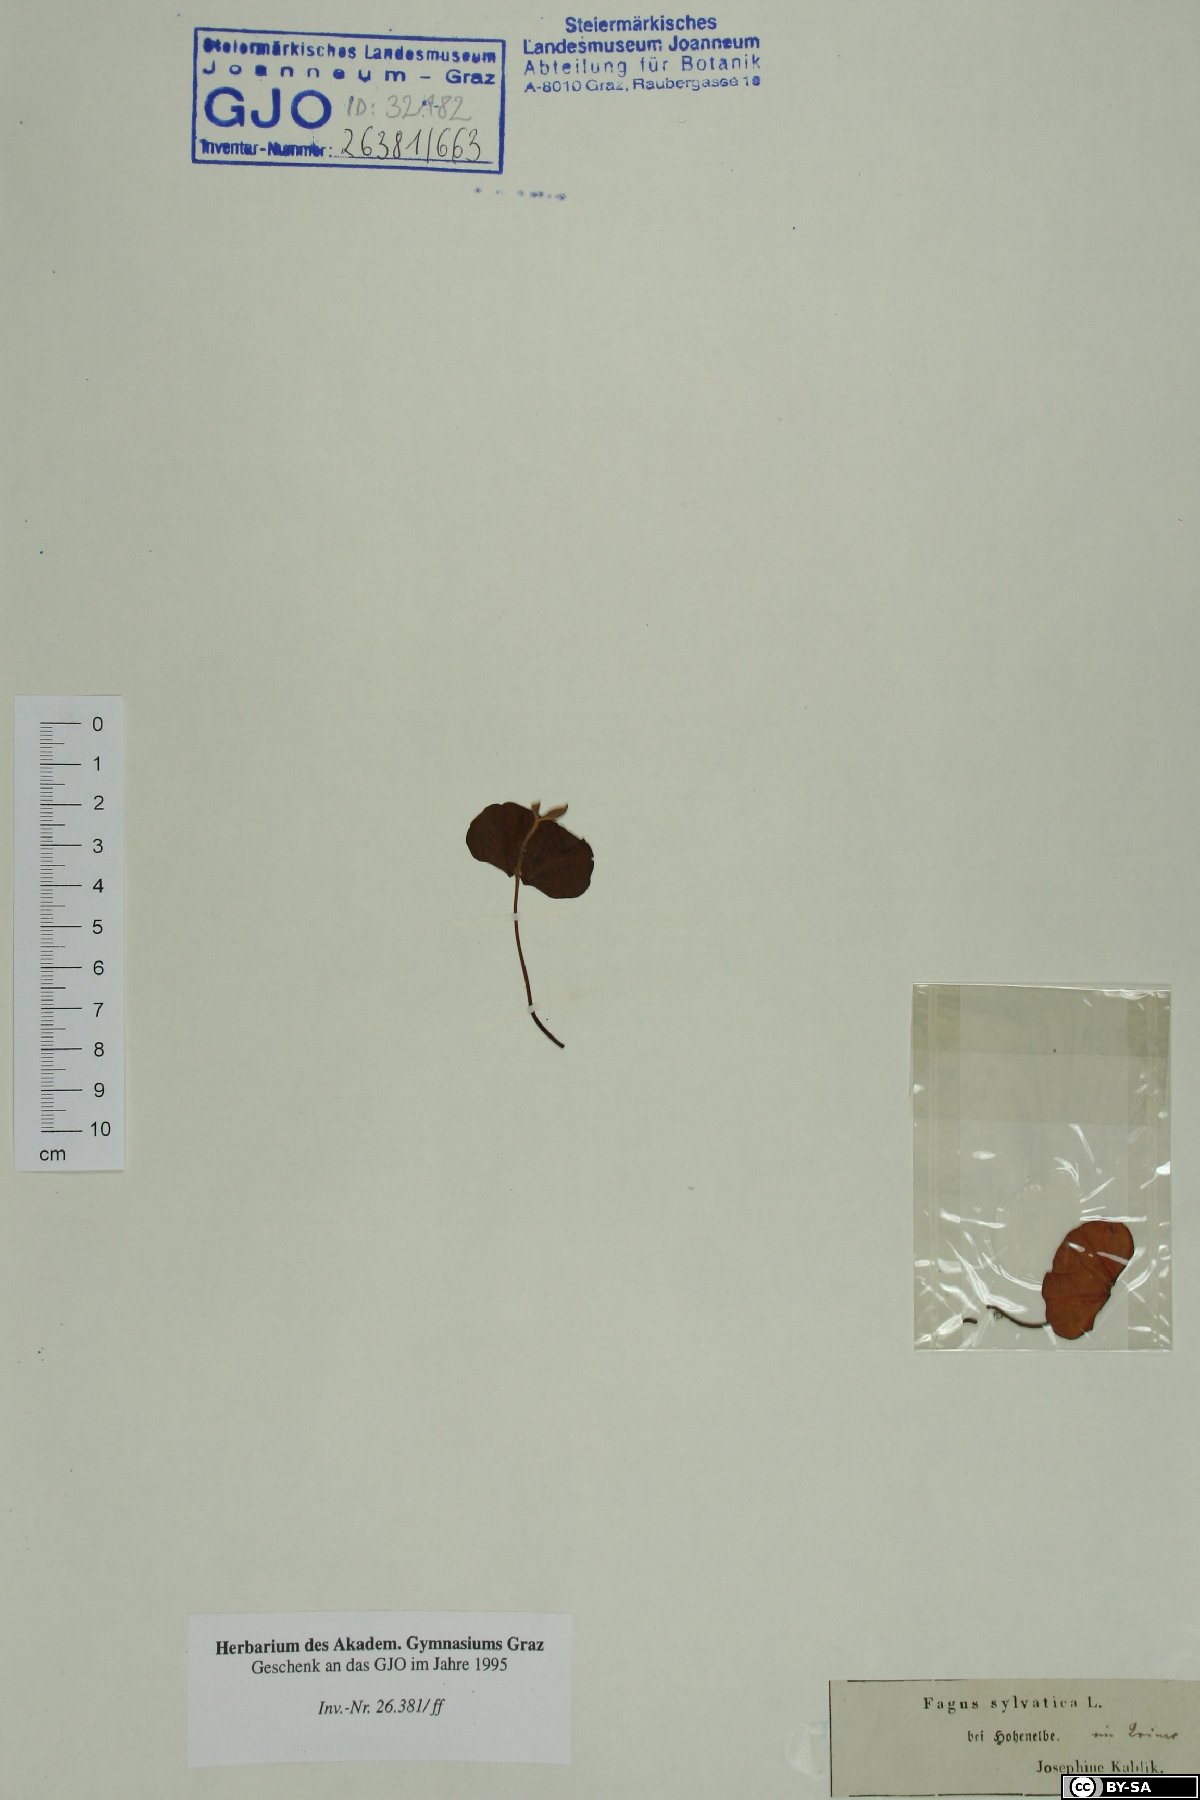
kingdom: Plantae
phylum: Tracheophyta
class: Magnoliopsida
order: Fagales
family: Fagaceae
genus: Fagus
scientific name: Fagus sylvatica
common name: Beech
